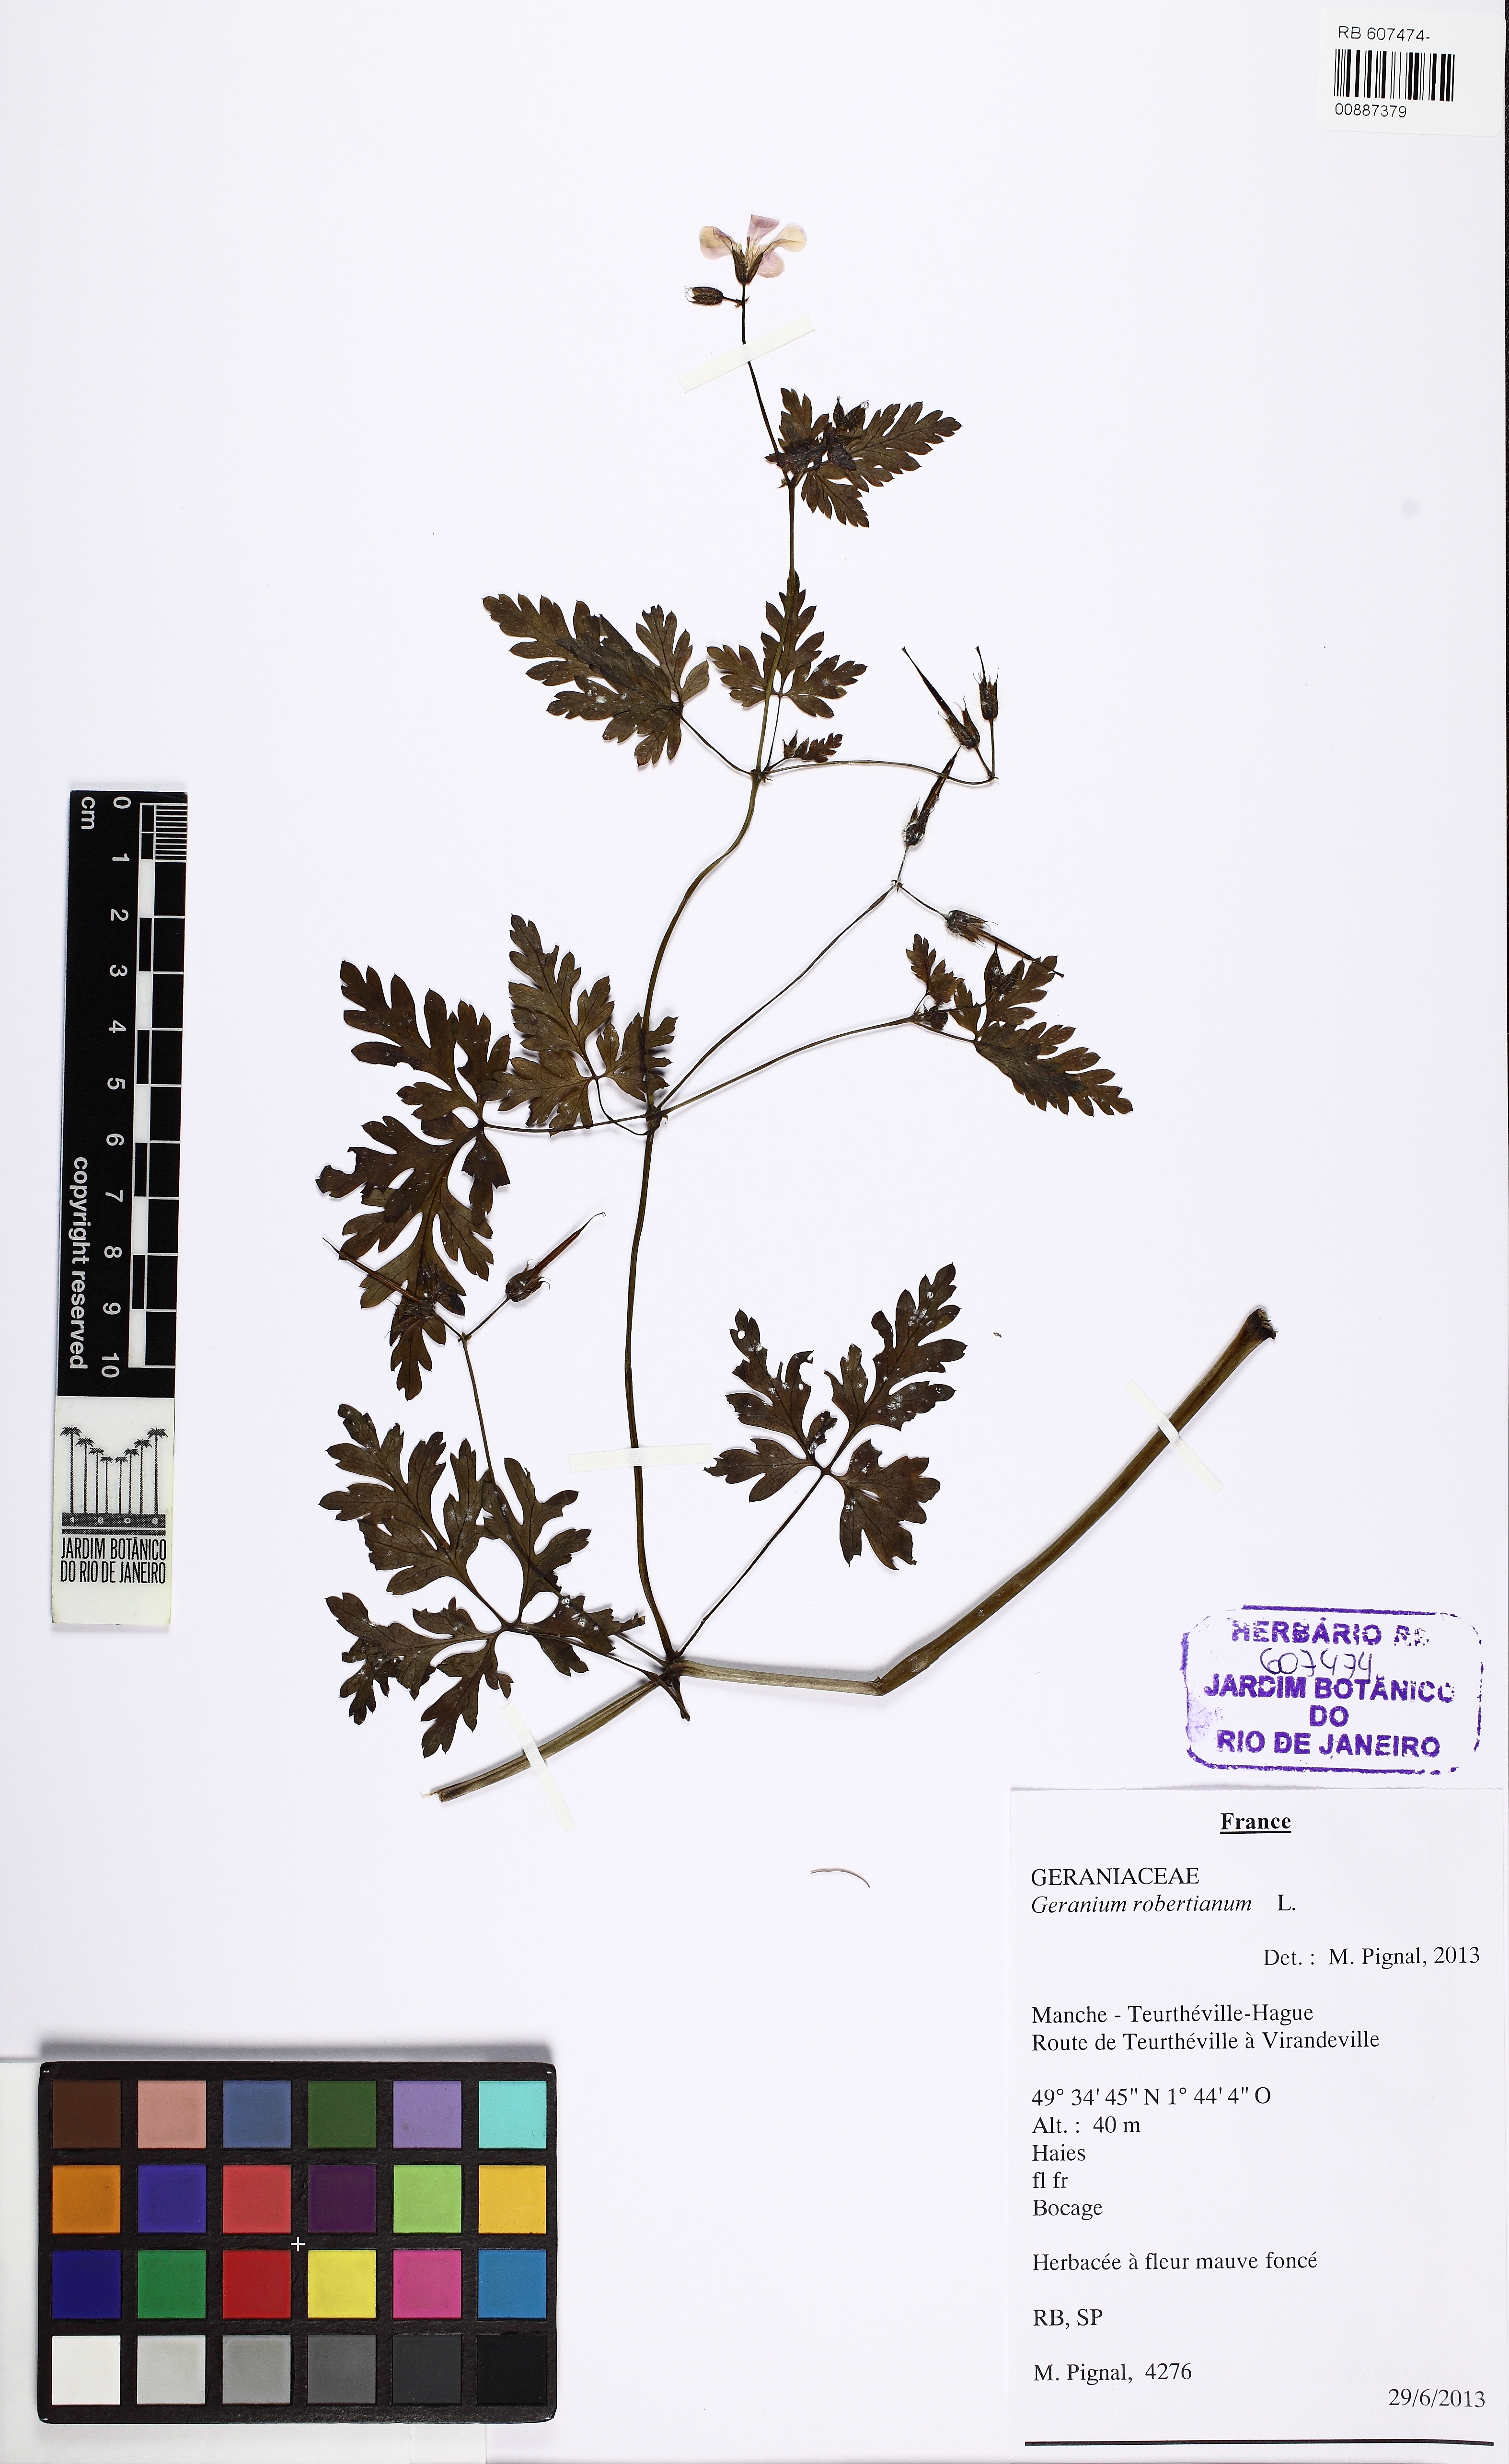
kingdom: Plantae
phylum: Tracheophyta
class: Magnoliopsida
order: Geraniales
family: Geraniaceae
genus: Geranium
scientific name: Geranium robertianum
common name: Herb-robert
